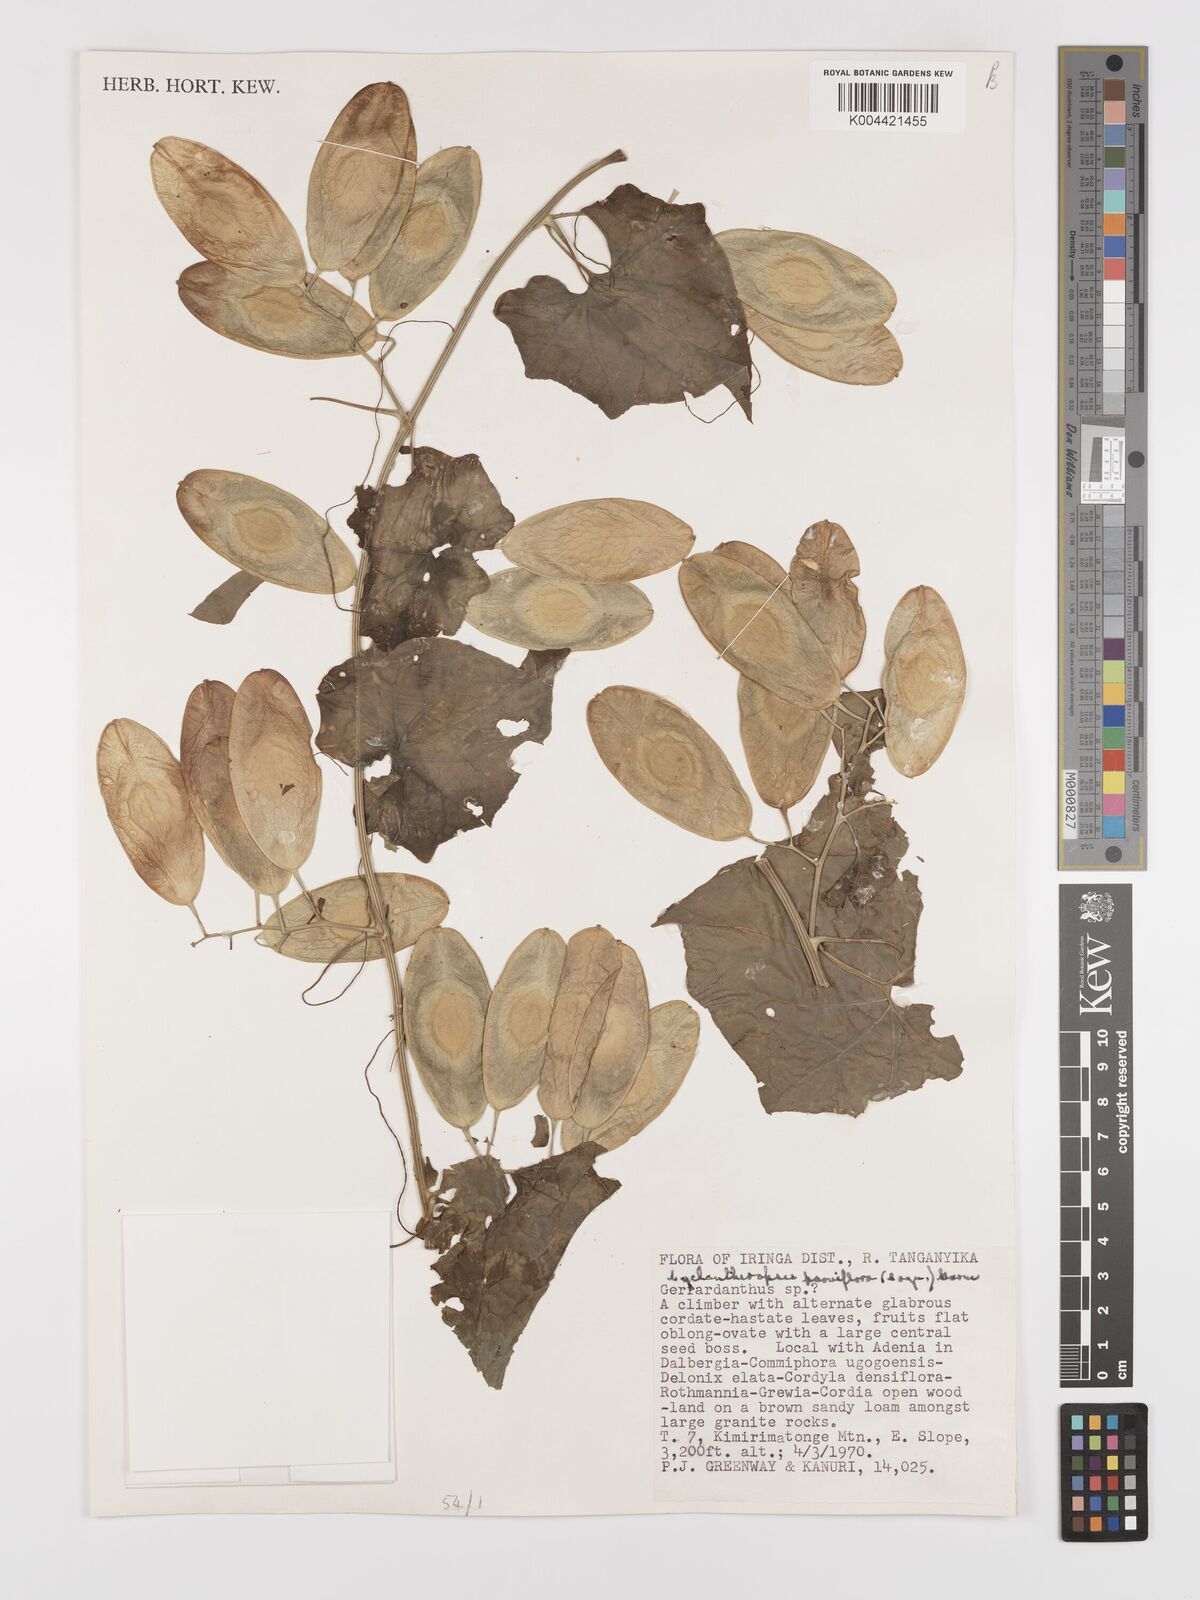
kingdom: Plantae
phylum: Tracheophyta
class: Magnoliopsida
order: Cucurbitales
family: Cucurbitaceae
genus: Cyclantheropsis
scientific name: Cyclantheropsis parviflora
